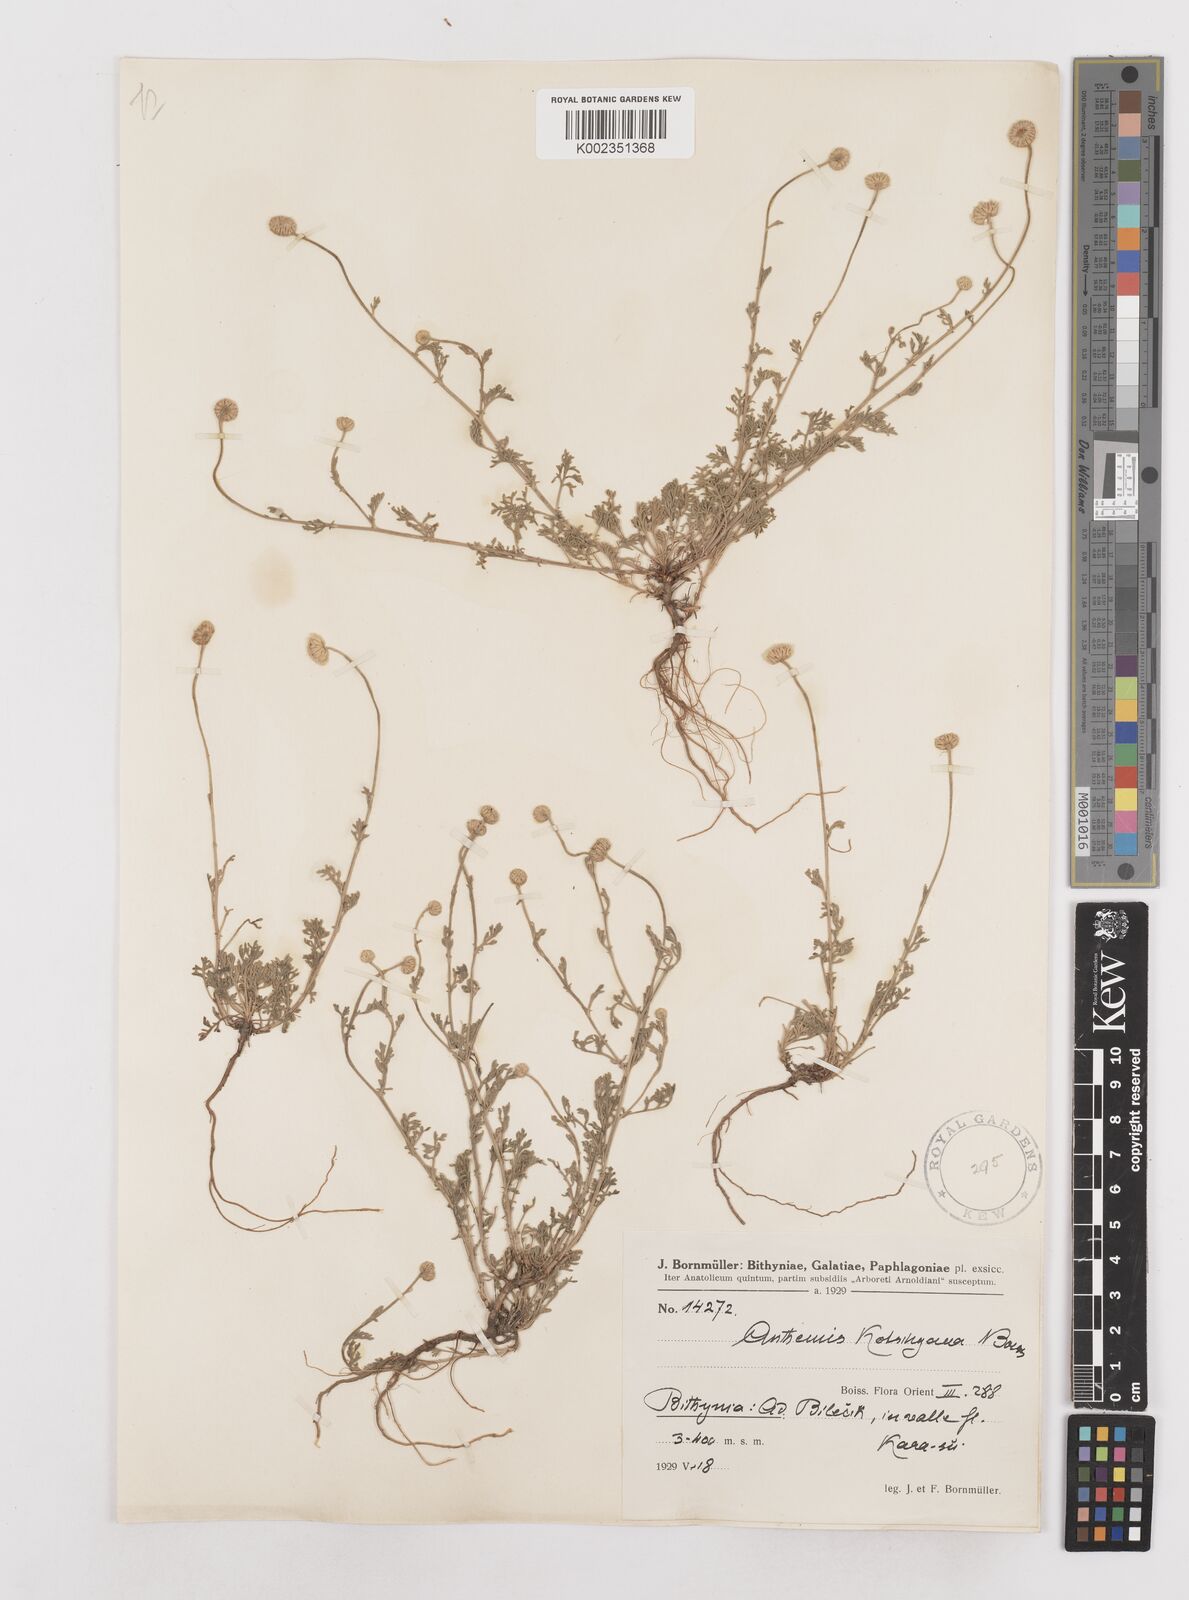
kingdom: Plantae
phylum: Tracheophyta
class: Magnoliopsida
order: Asterales
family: Asteraceae
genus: Anthemis
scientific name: Anthemis kotschyana
